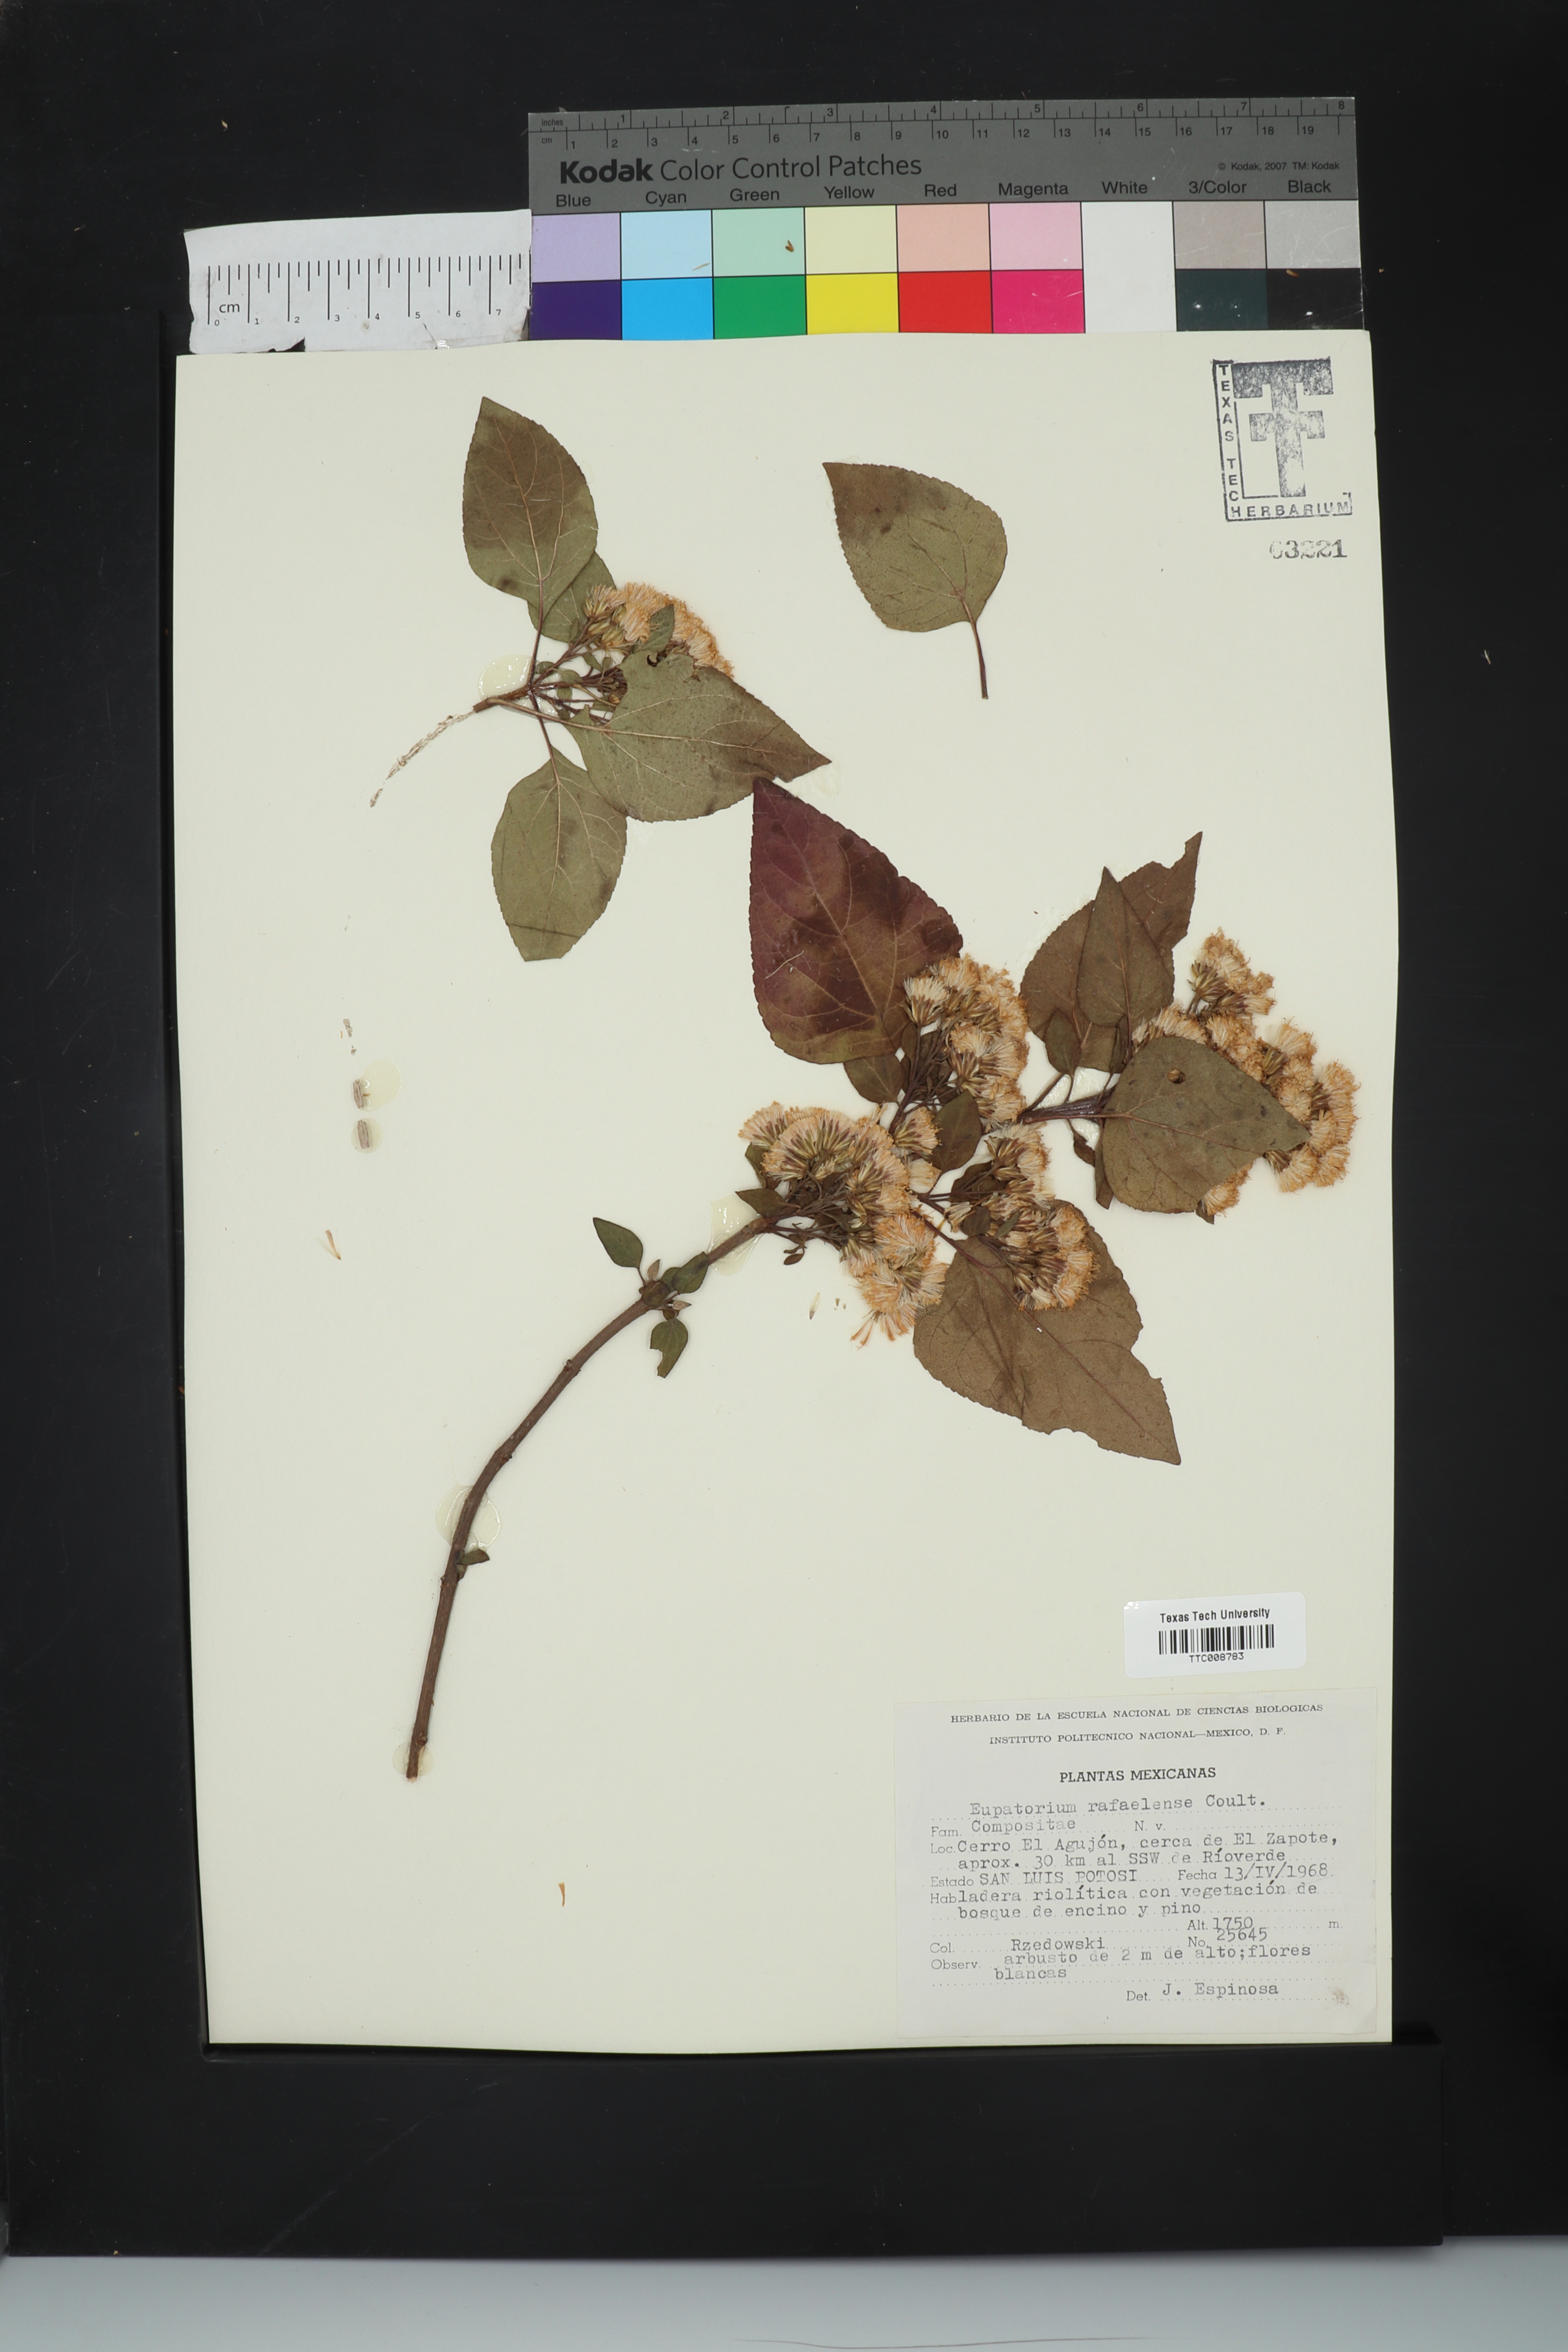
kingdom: Plantae
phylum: Tracheophyta
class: Magnoliopsida
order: Asterales
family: Asteraceae
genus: Ageratina
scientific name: Ageratina mairetiana
